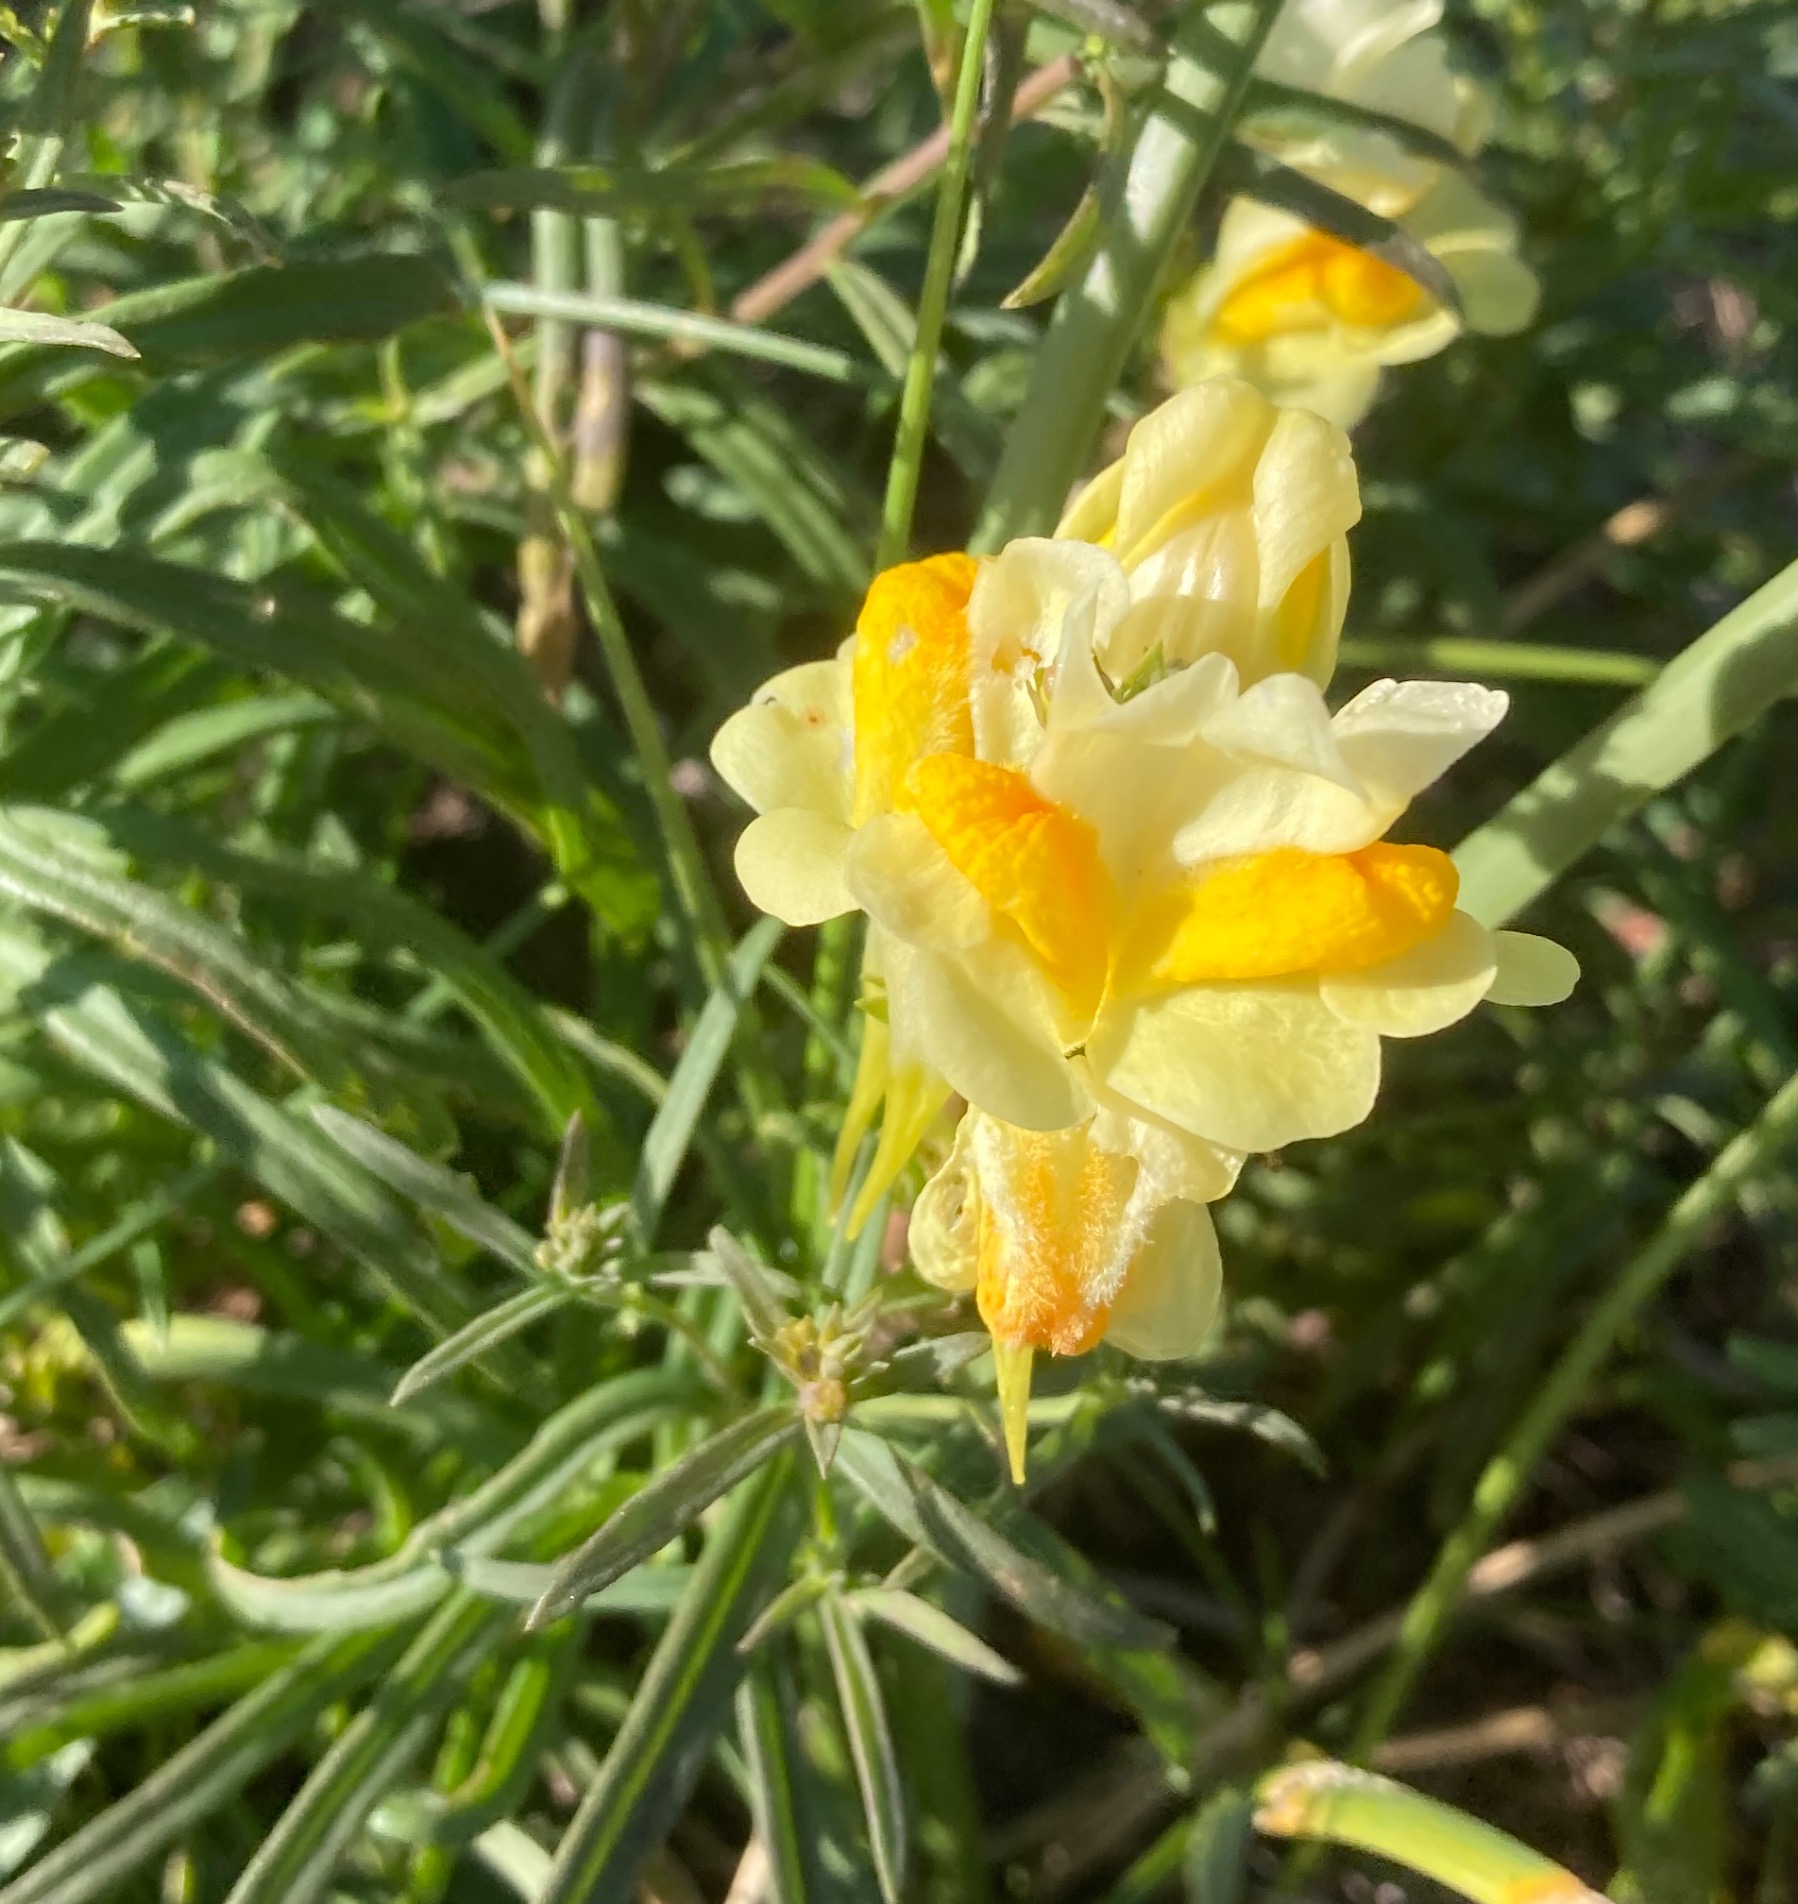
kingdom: Plantae
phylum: Tracheophyta
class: Magnoliopsida
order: Lamiales
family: Plantaginaceae
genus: Linaria
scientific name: Linaria vulgaris
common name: Almindelig torskemund
